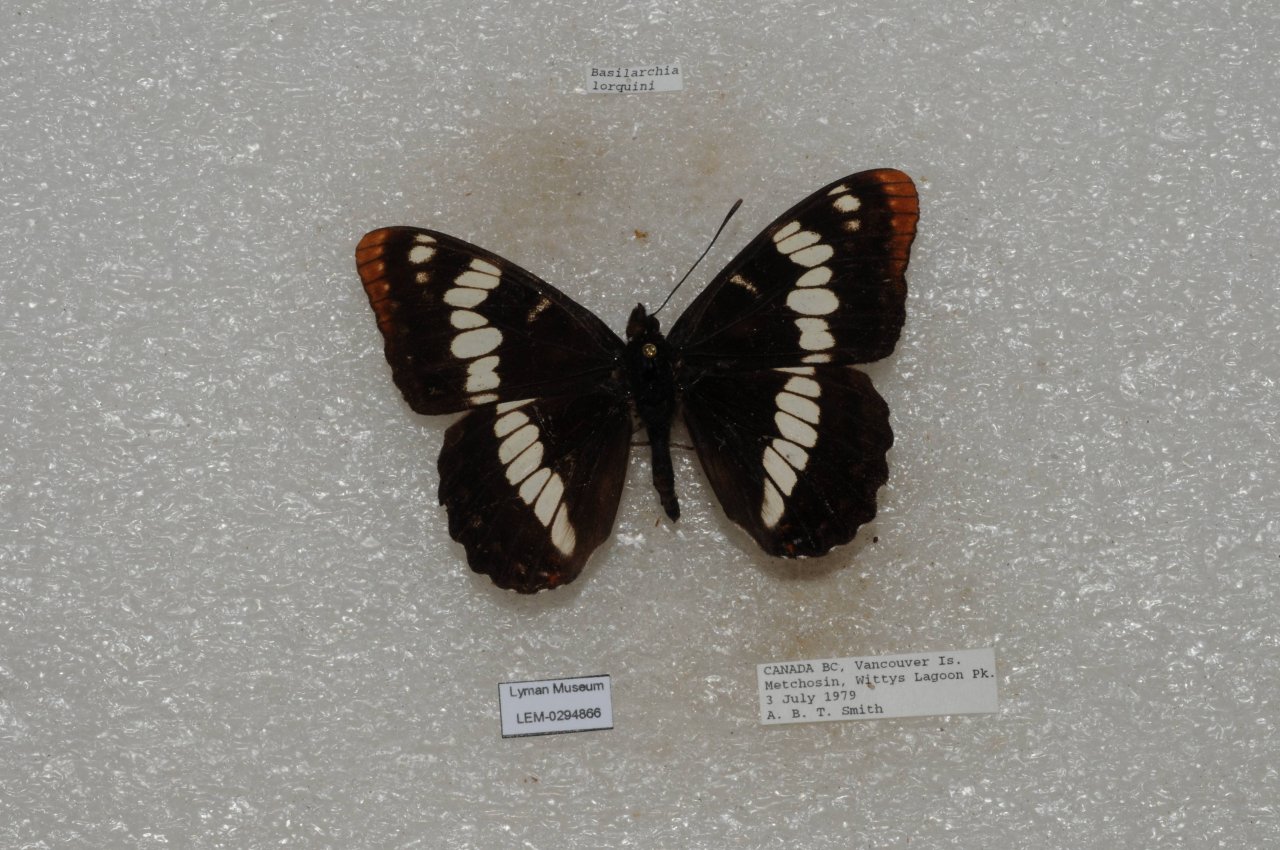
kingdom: Animalia
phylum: Arthropoda
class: Insecta
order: Lepidoptera
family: Nymphalidae
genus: Limenitis
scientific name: Limenitis lorquini
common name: Lorquin's Admiral
